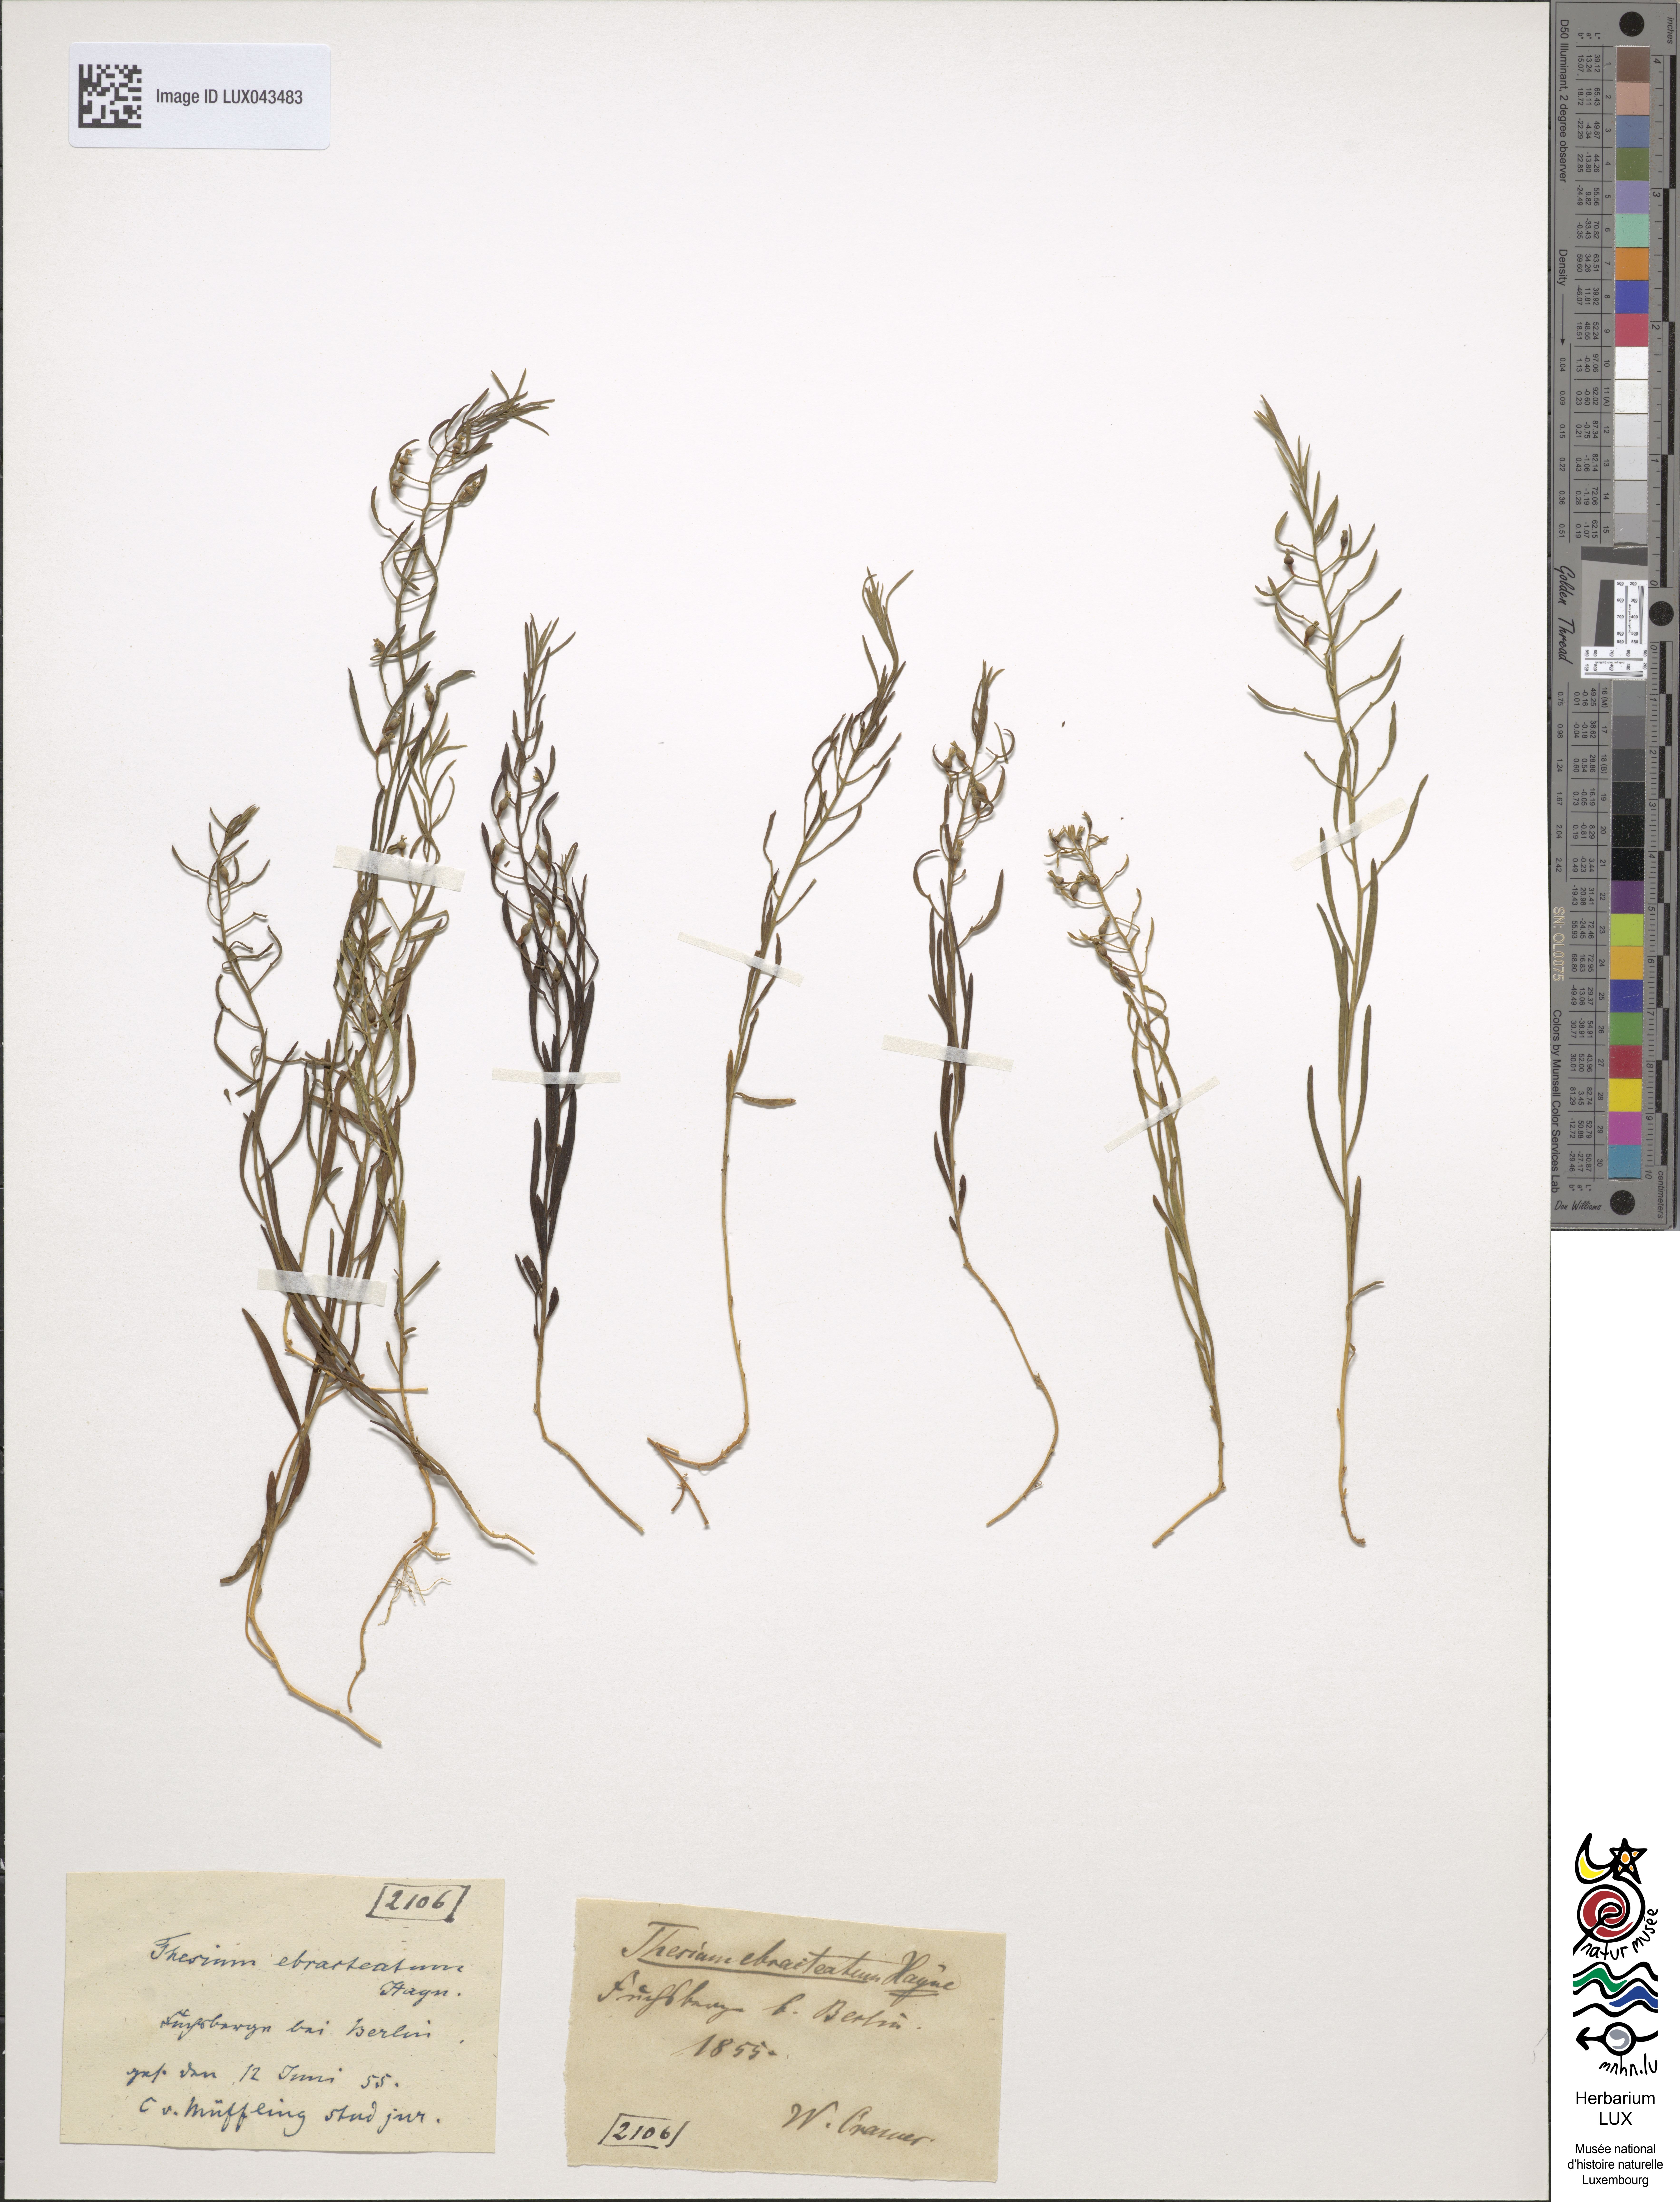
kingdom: Plantae
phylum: Tracheophyta
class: Magnoliopsida
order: Santalales
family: Thesiaceae
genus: Thesium
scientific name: Thesium ebracteatum
